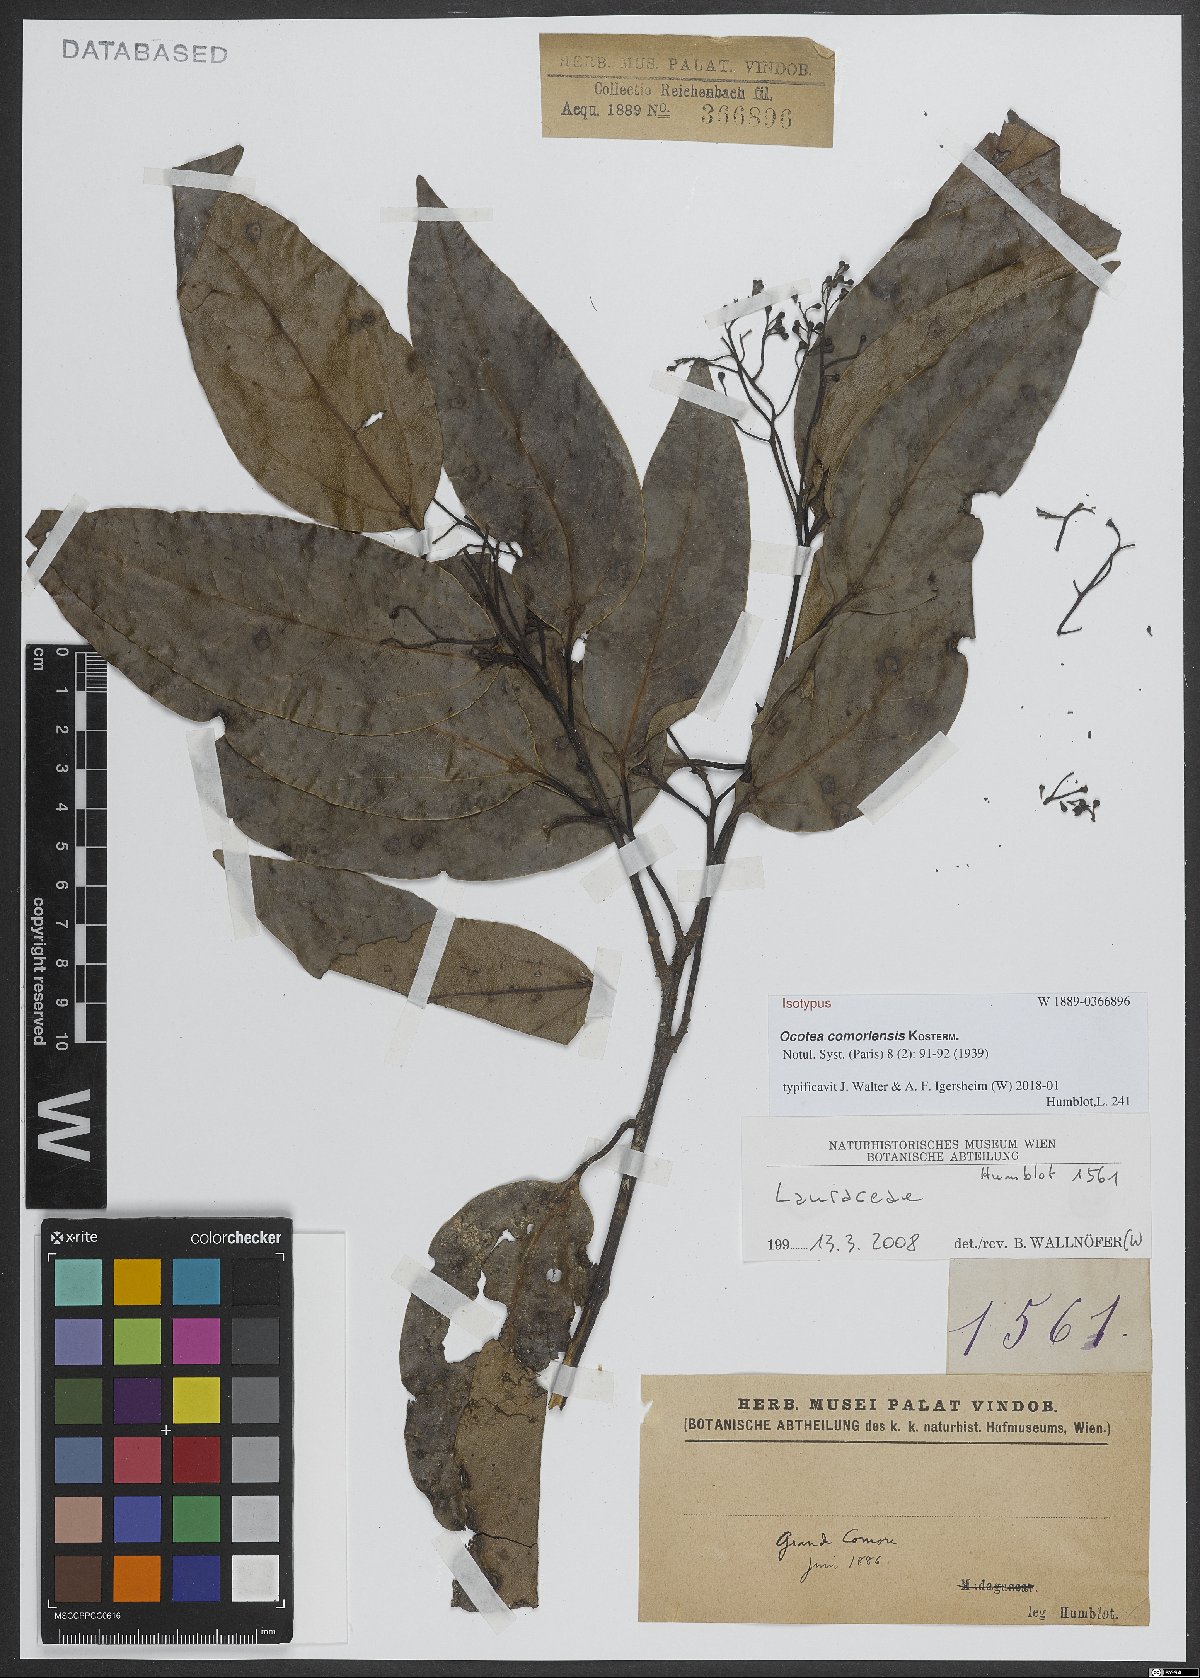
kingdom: Plantae
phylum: Tracheophyta
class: Magnoliopsida
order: Laurales
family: Lauraceae
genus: Ocotea
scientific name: Ocotea comoriensis
